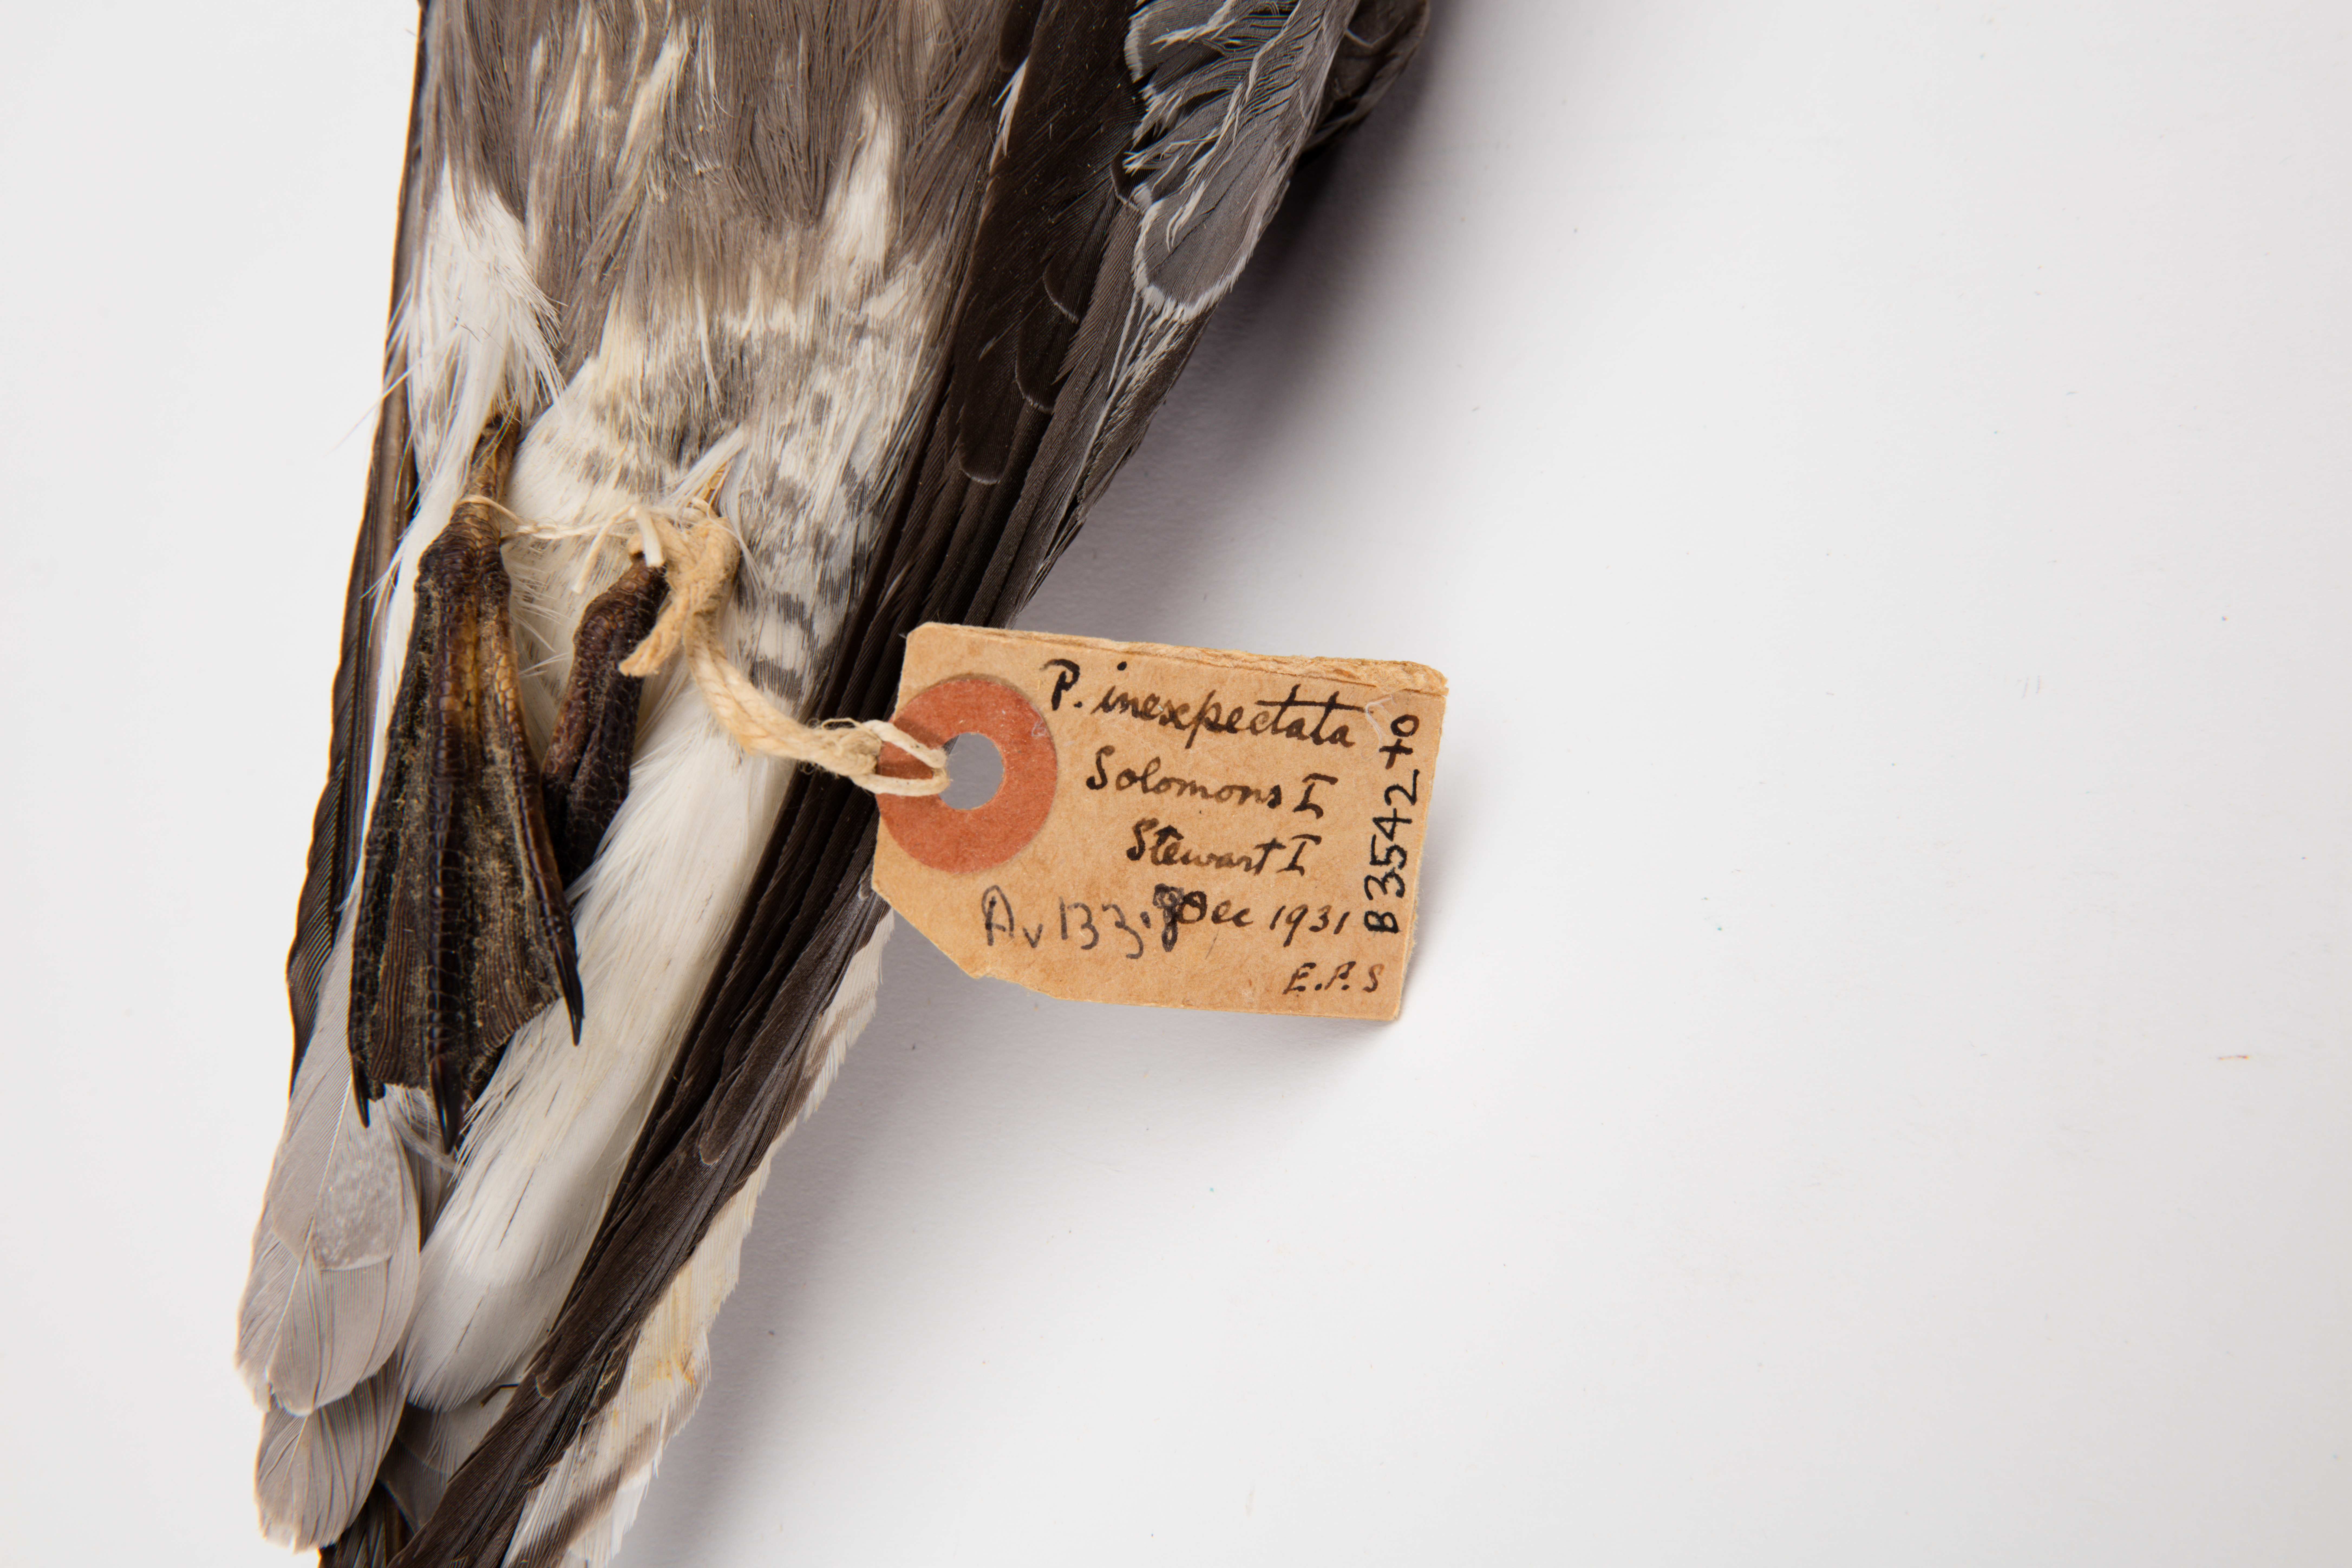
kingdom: Animalia
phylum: Chordata
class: Aves
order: Procellariiformes
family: Procellariidae
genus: Pterodroma
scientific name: Pterodroma inexpectata
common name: Mottled petrel
